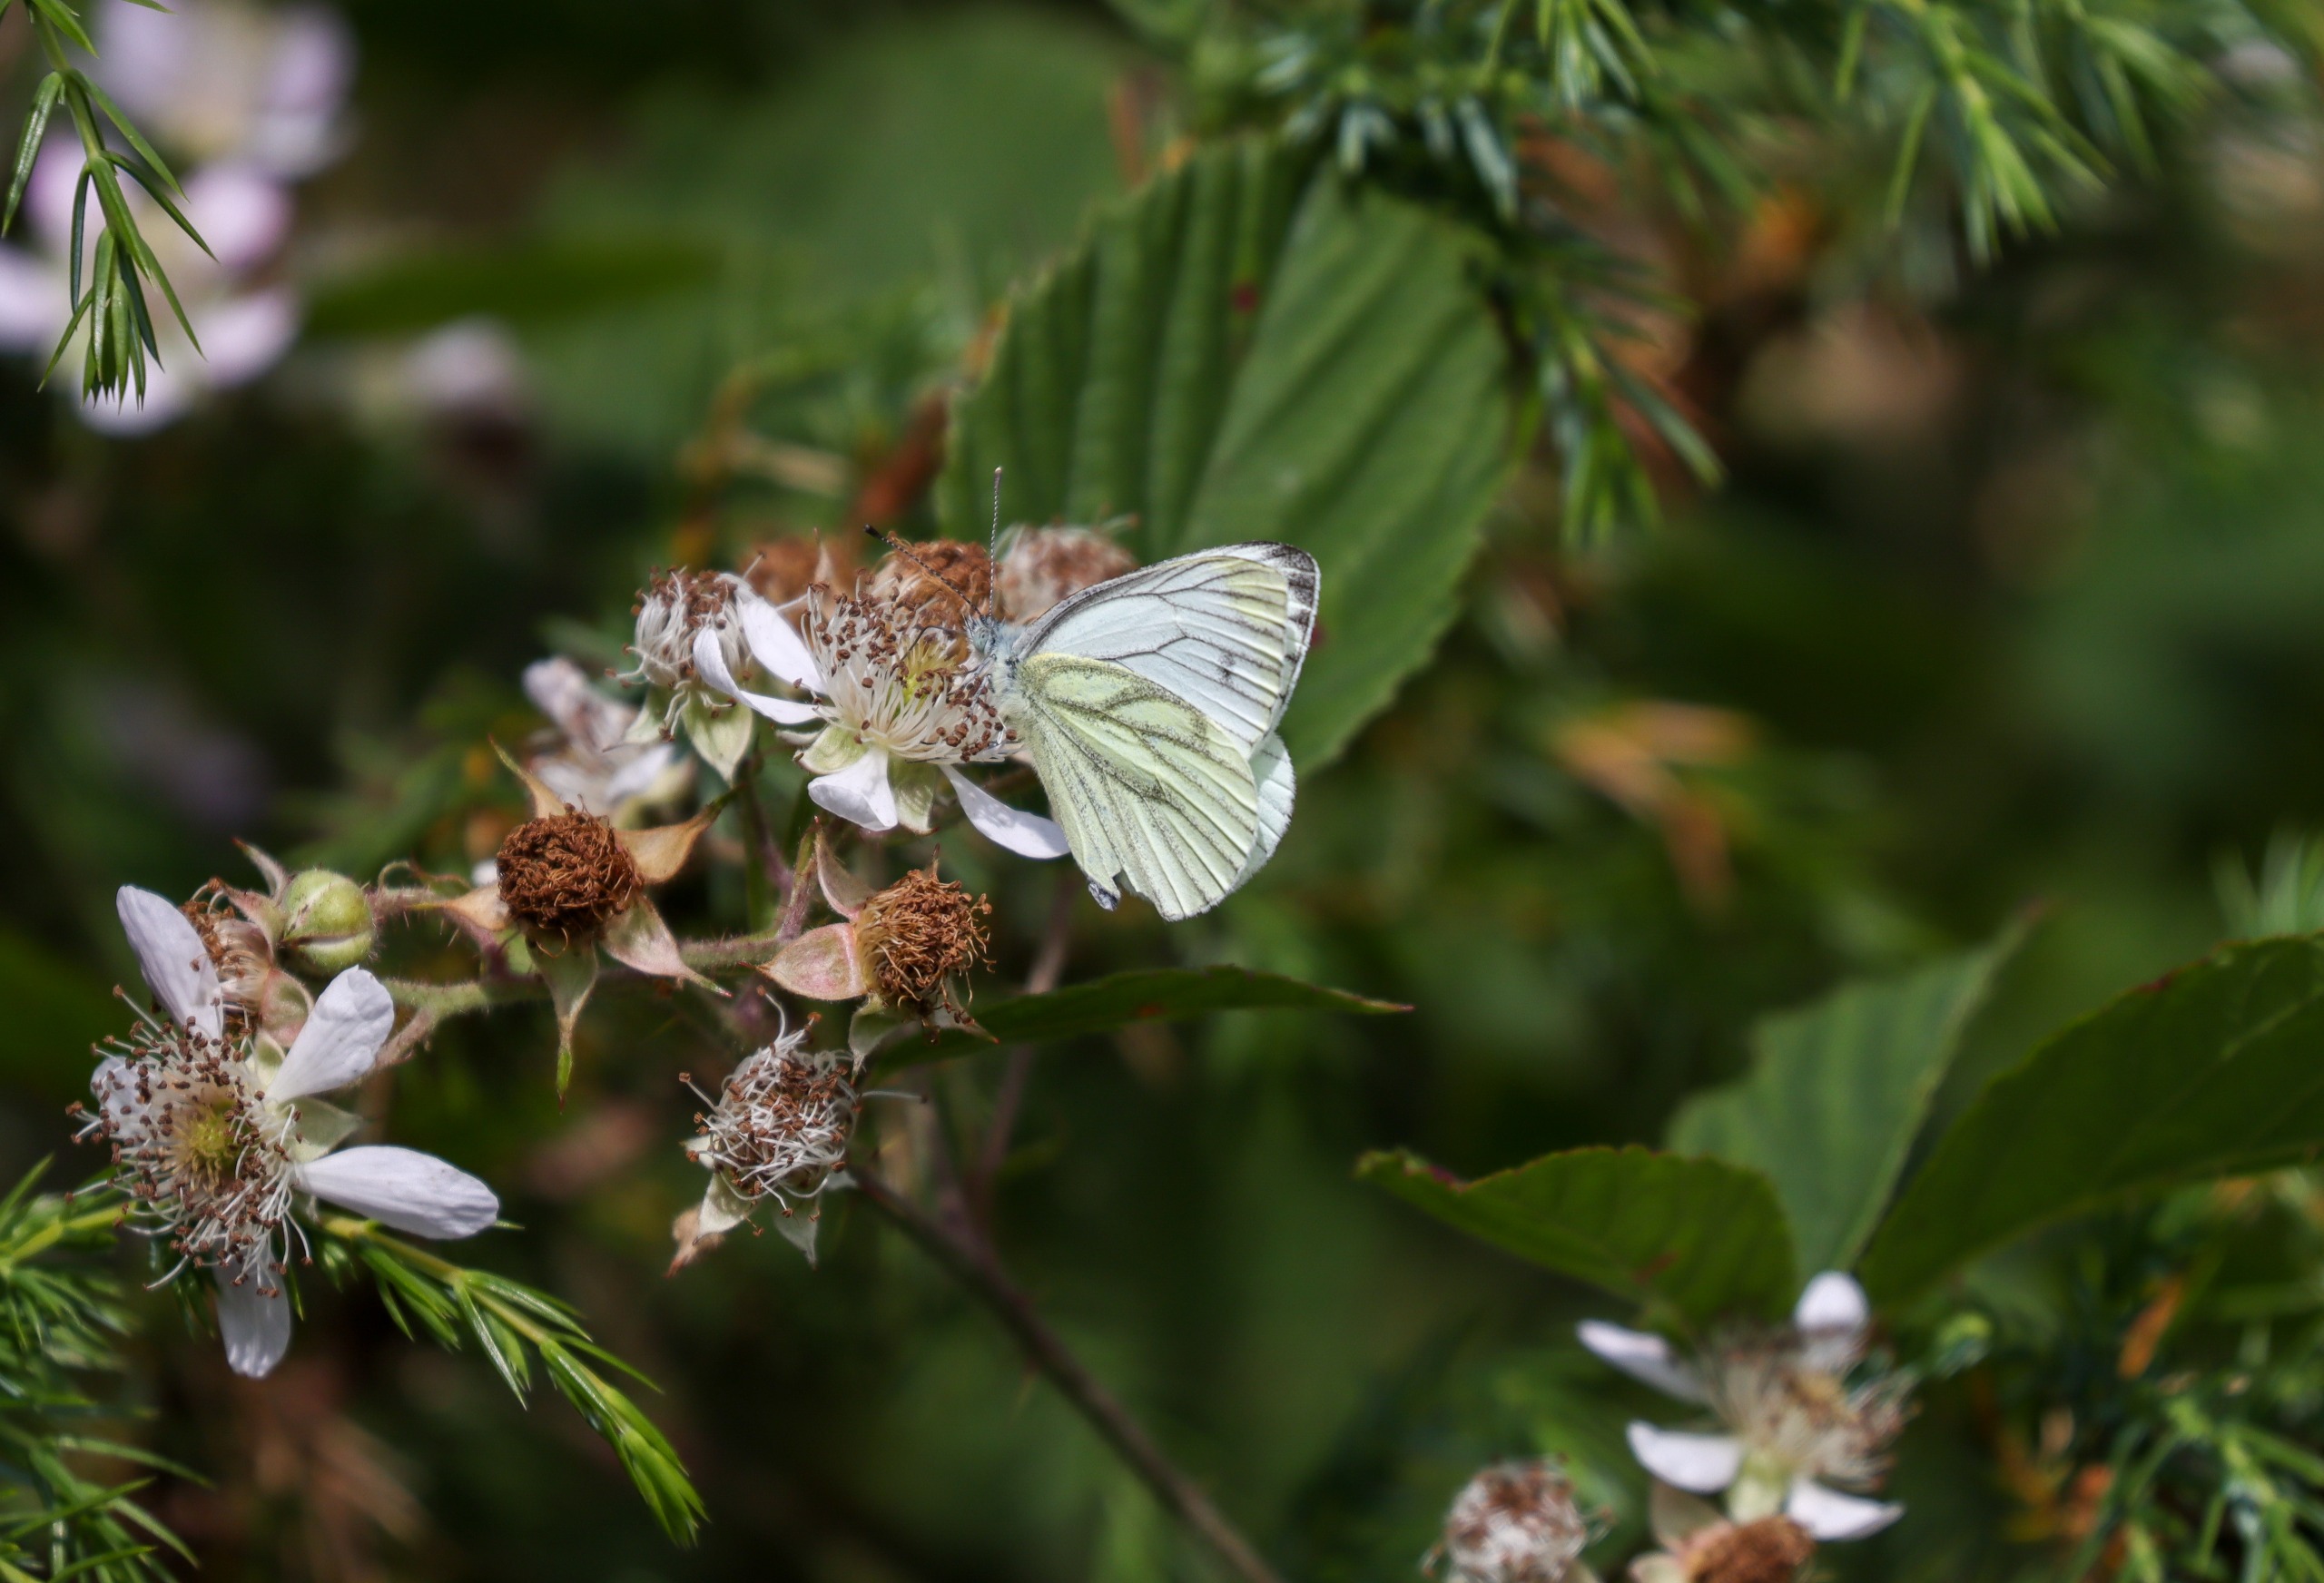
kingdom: Animalia
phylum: Arthropoda
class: Insecta
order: Lepidoptera
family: Pieridae
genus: Pieris
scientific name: Pieris napi
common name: Grønåret kålsommerfugl
